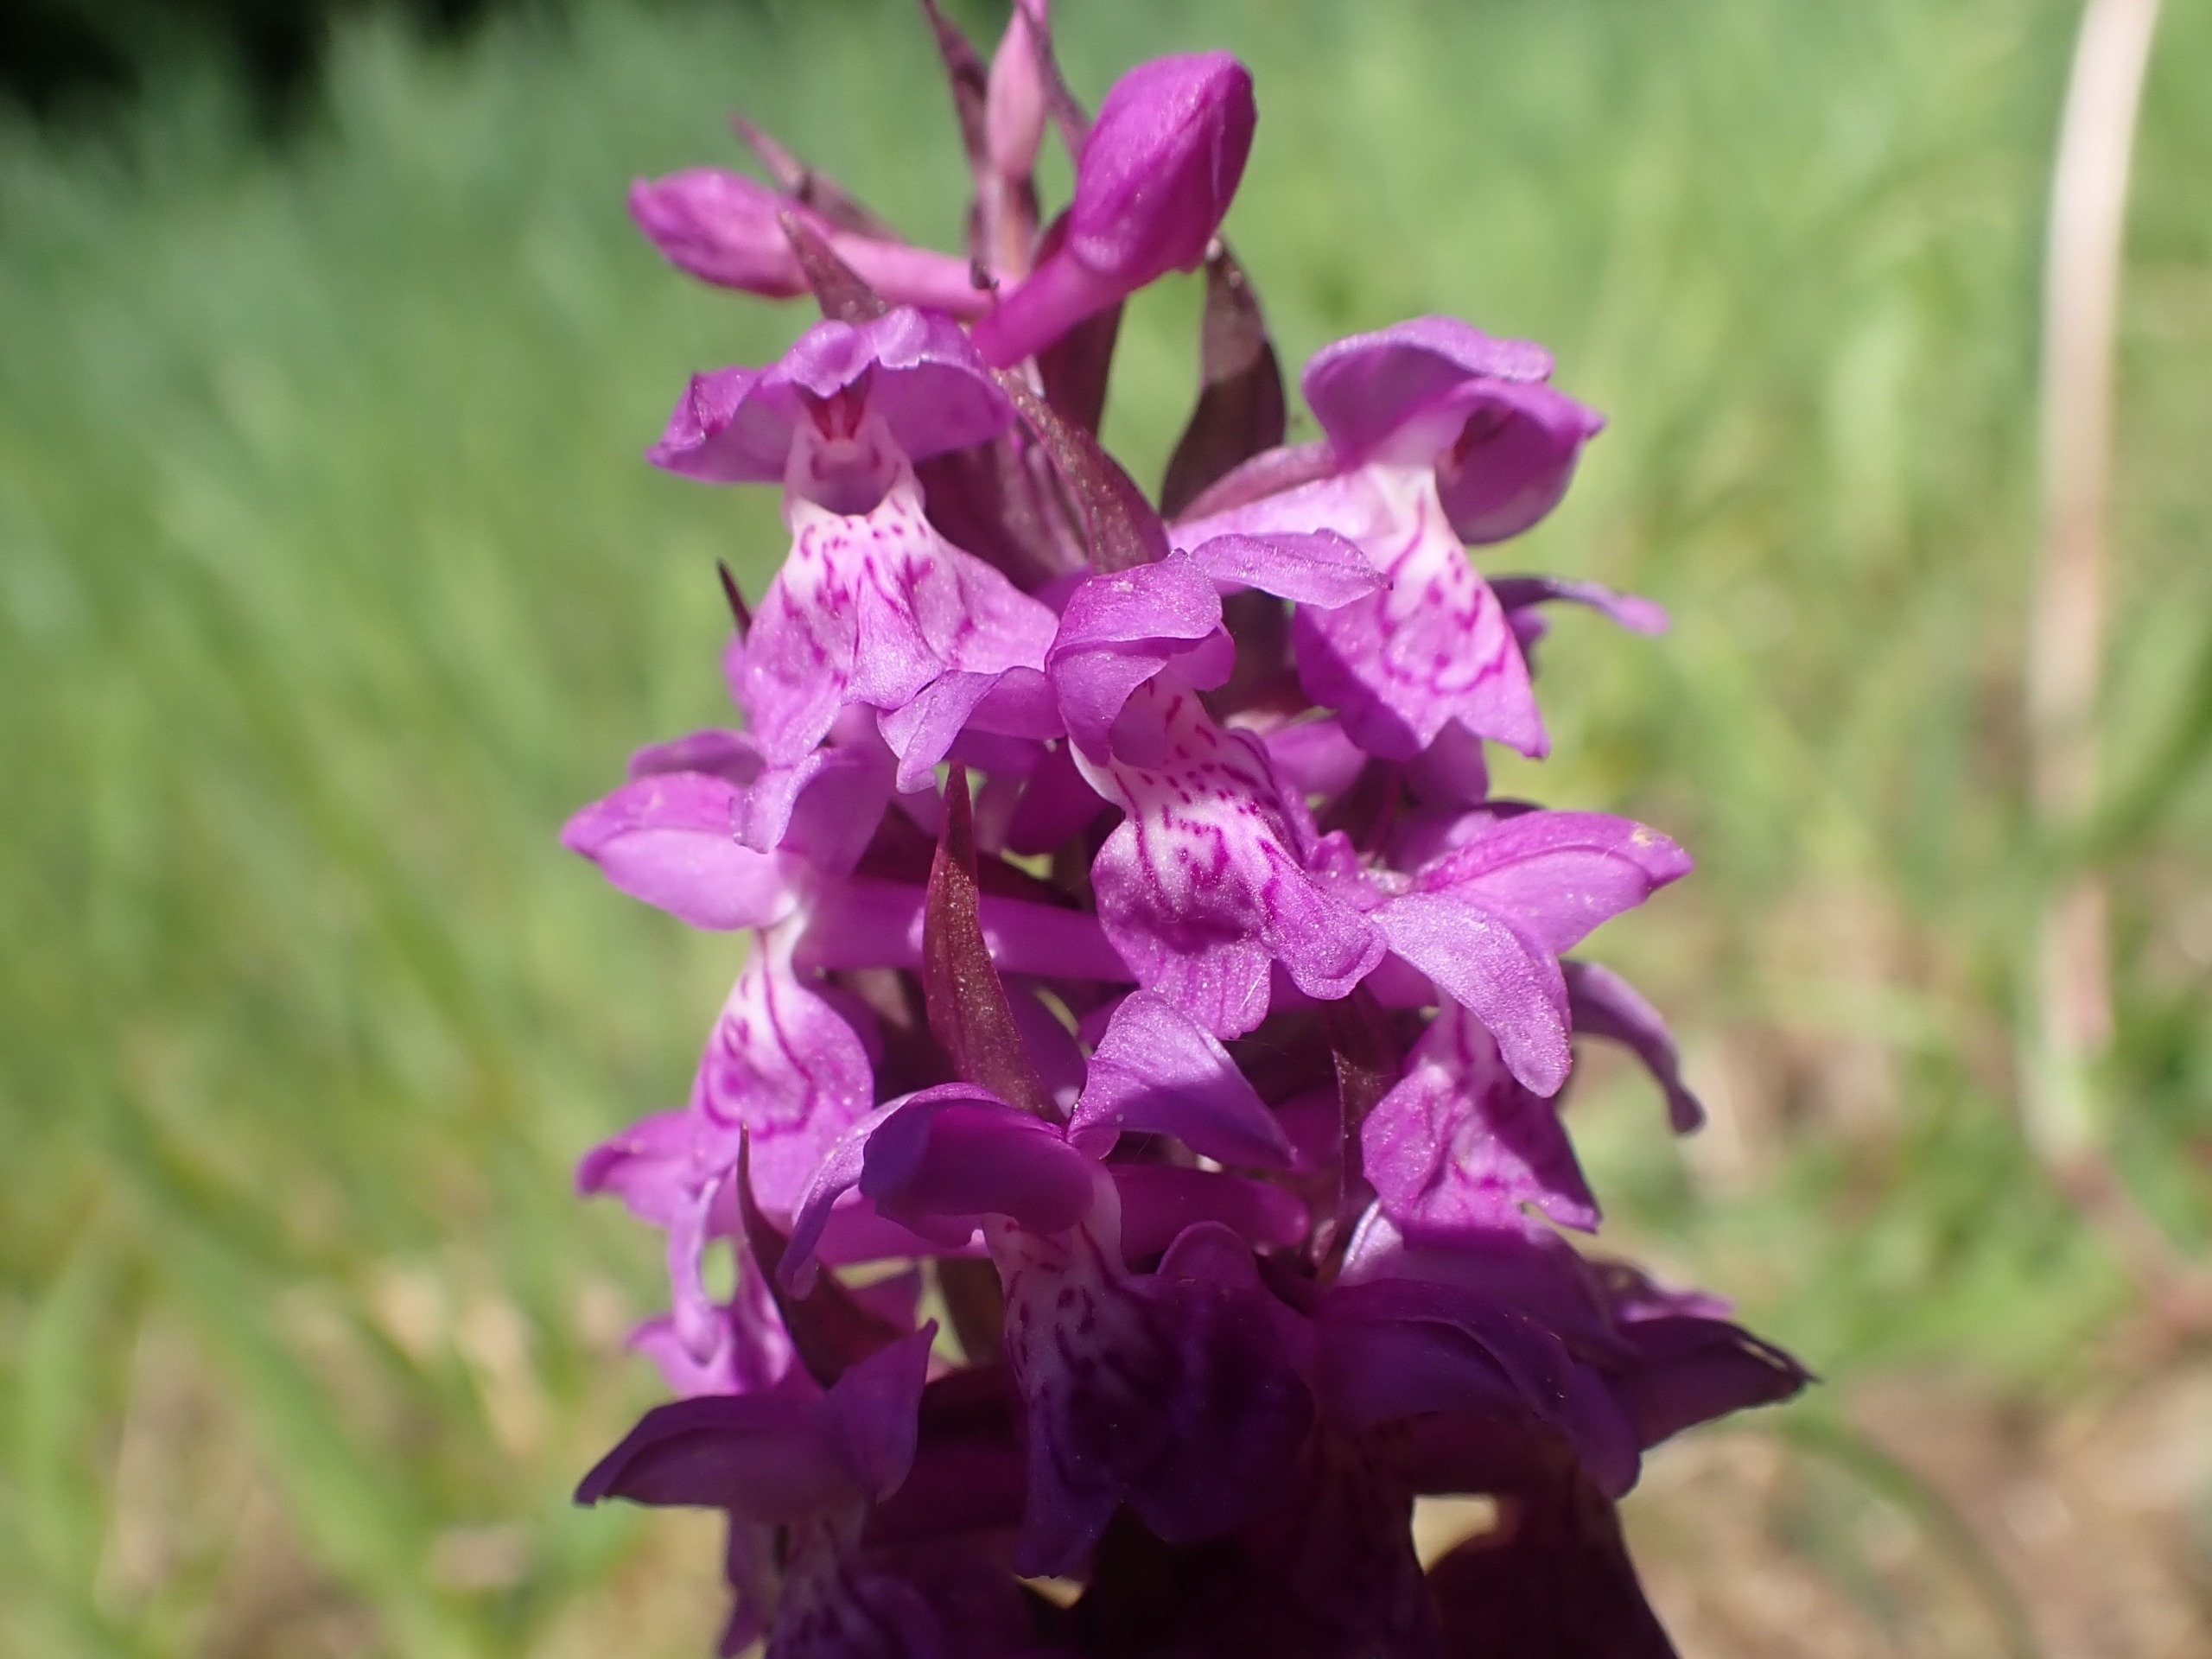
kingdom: Plantae
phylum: Tracheophyta
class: Liliopsida
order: Asparagales
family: Orchidaceae
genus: Dactylorhiza
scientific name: Dactylorhiza majalis
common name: Maj-gøgeurt
